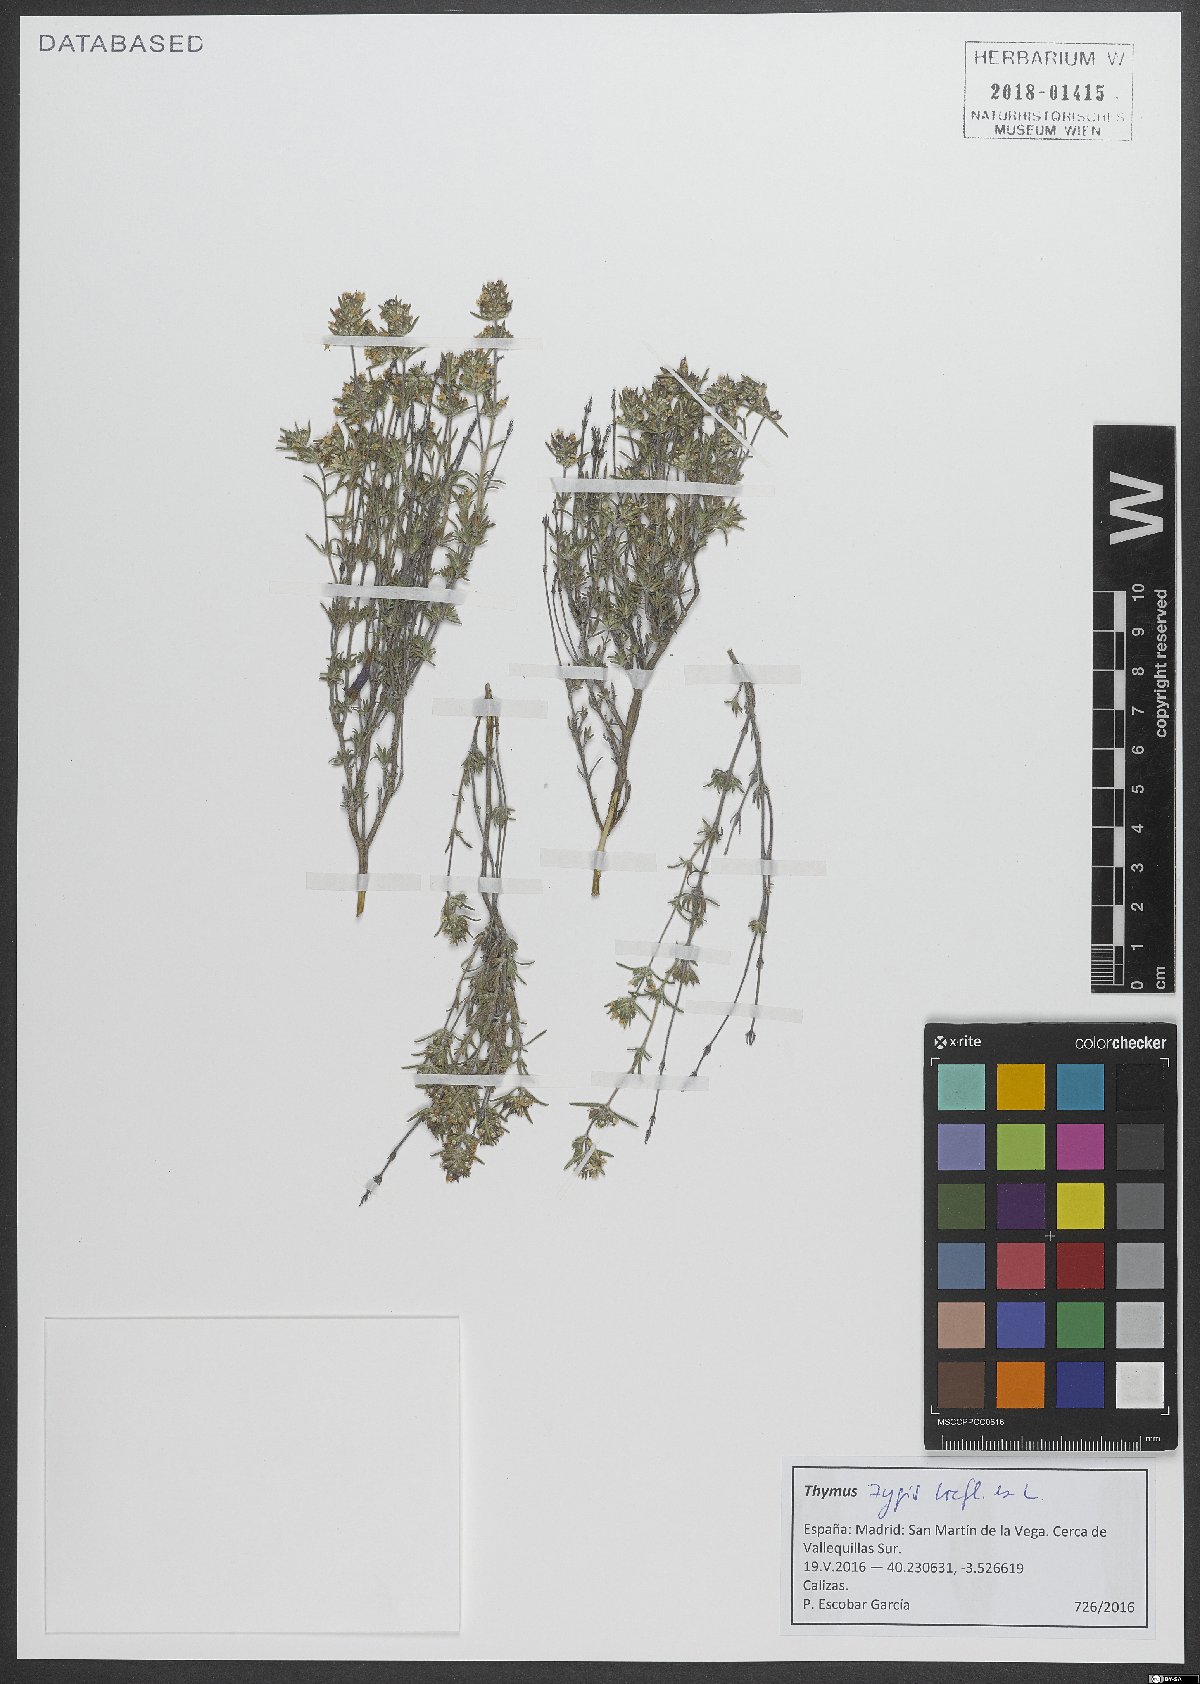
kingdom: Plantae
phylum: Tracheophyta
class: Magnoliopsida
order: Lamiales
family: Lamiaceae
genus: Thymus
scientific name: Thymus zygis
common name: White thyme
